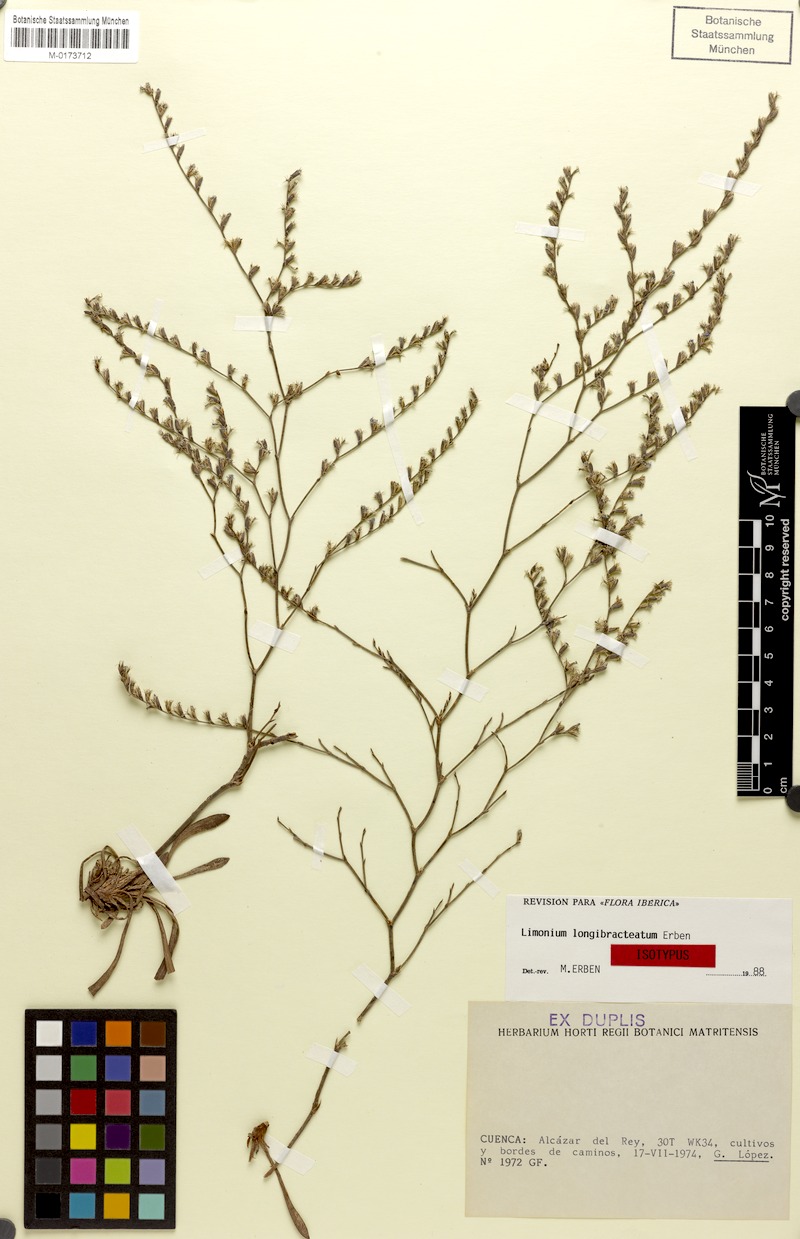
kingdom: Plantae
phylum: Tracheophyta
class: Magnoliopsida
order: Caryophyllales
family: Plumbaginaceae
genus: Limonium
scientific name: Limonium longibracteatum
